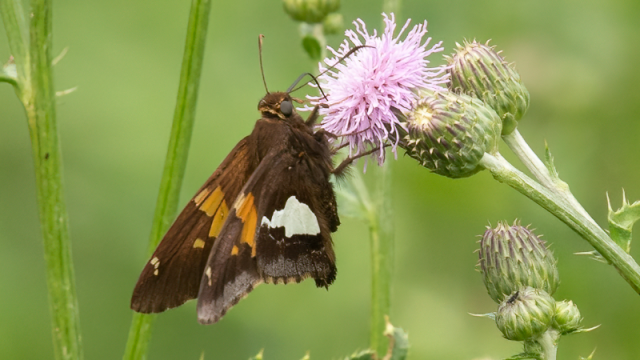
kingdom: Animalia
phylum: Arthropoda
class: Insecta
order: Lepidoptera
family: Hesperiidae
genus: Epargyreus
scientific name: Epargyreus clarus
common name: Silver-spotted Skipper
